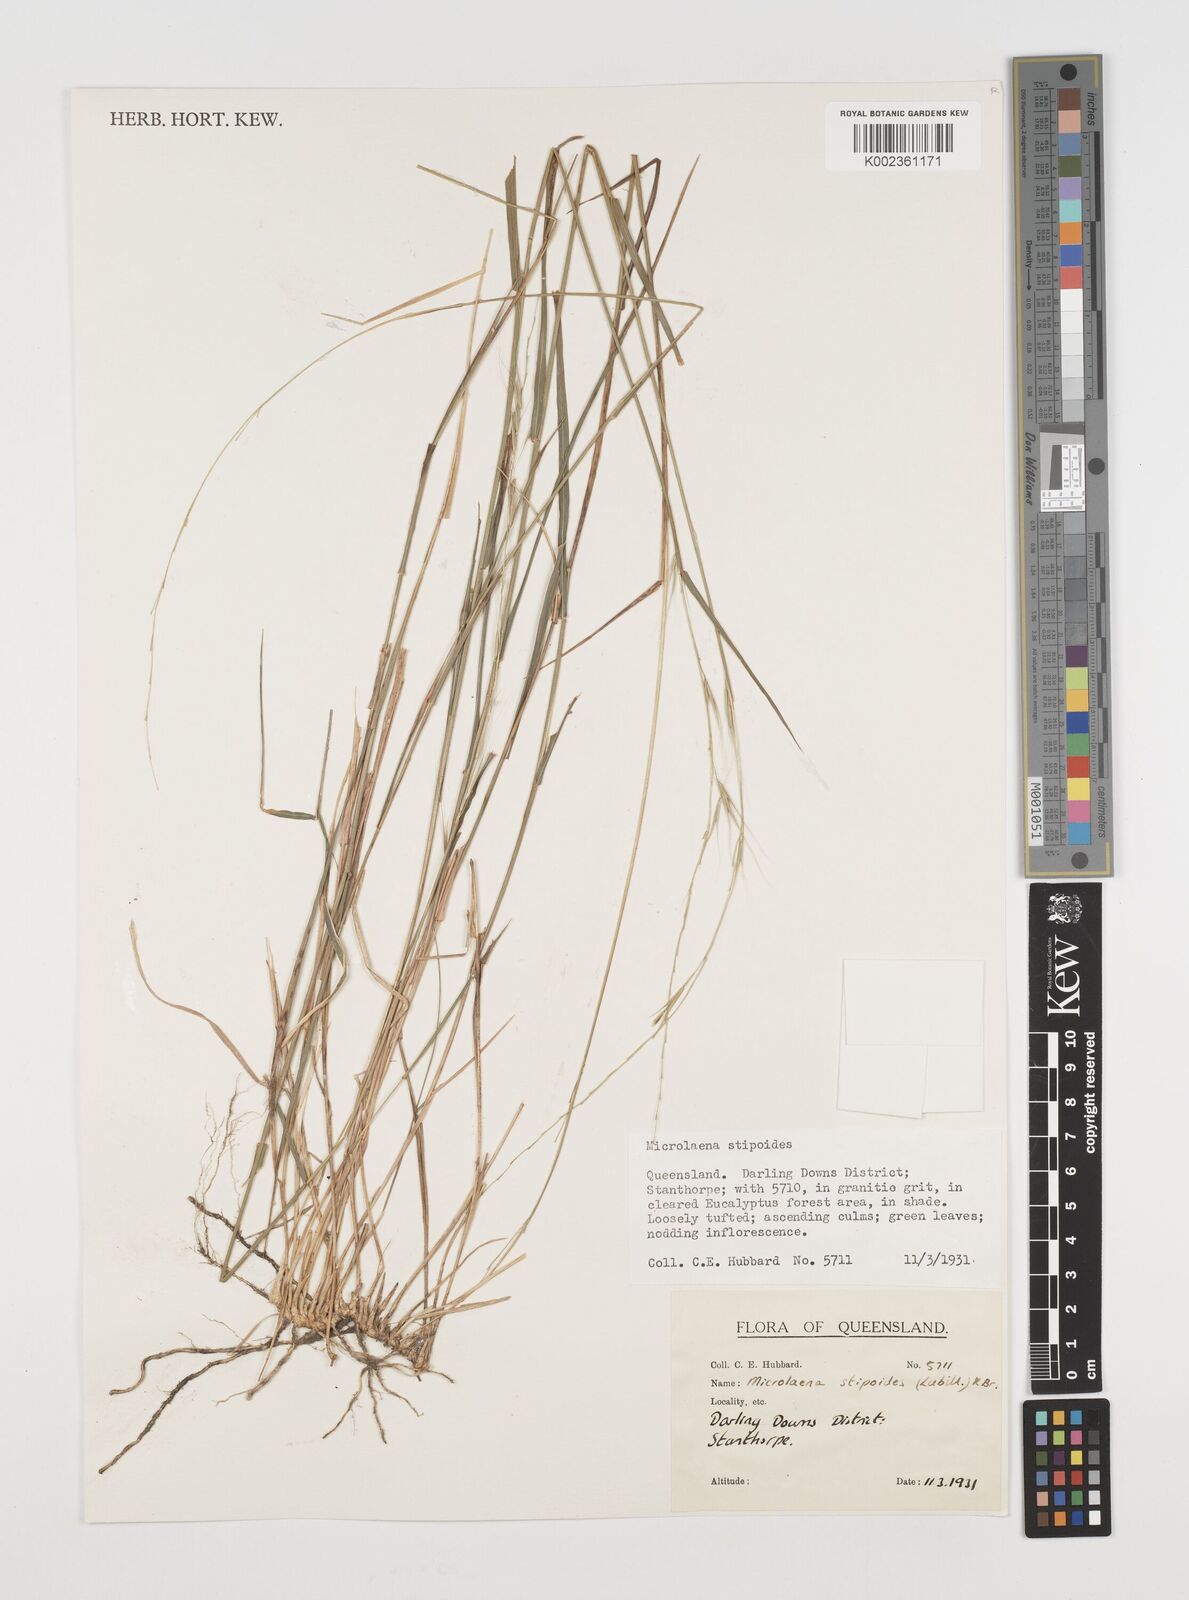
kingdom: Plantae
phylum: Tracheophyta
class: Liliopsida
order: Poales
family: Poaceae
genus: Microlaena
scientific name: Microlaena stipoides
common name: Meadow ricegrass
